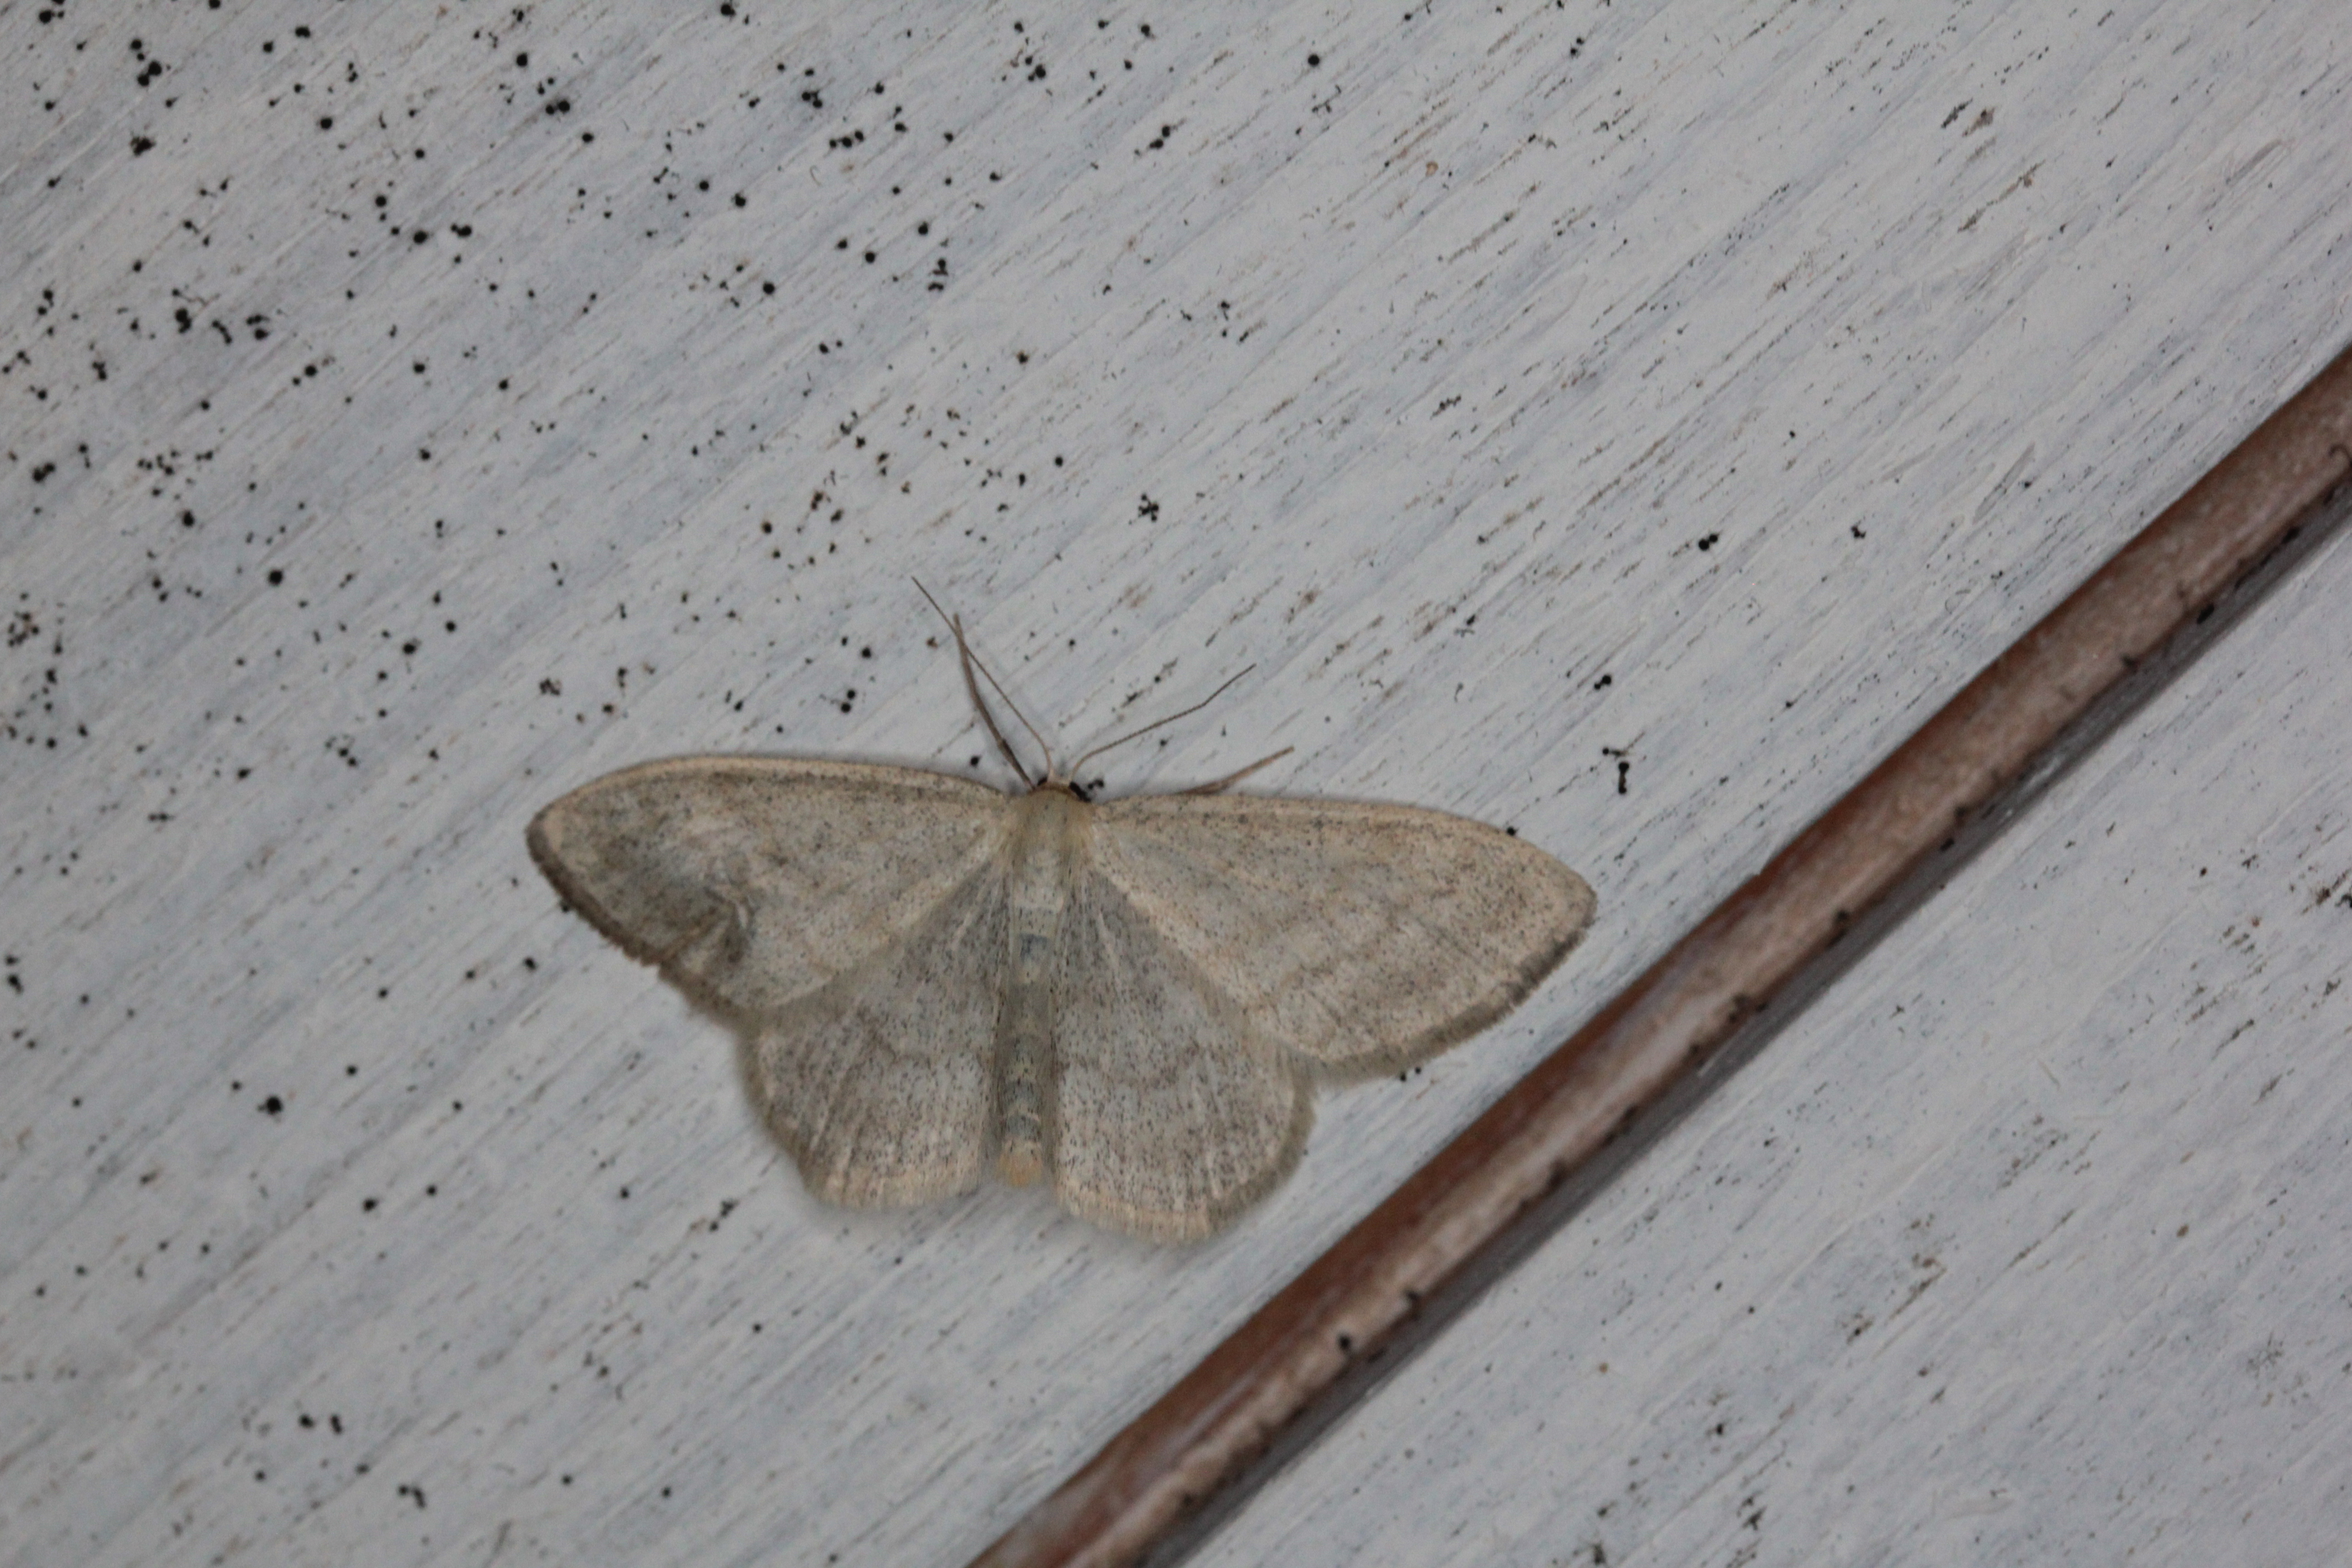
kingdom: Animalia
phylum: Arthropoda
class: Insecta
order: Lepidoptera
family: Geometridae
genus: Scopula
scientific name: Scopula ternata
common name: Smoky wave
